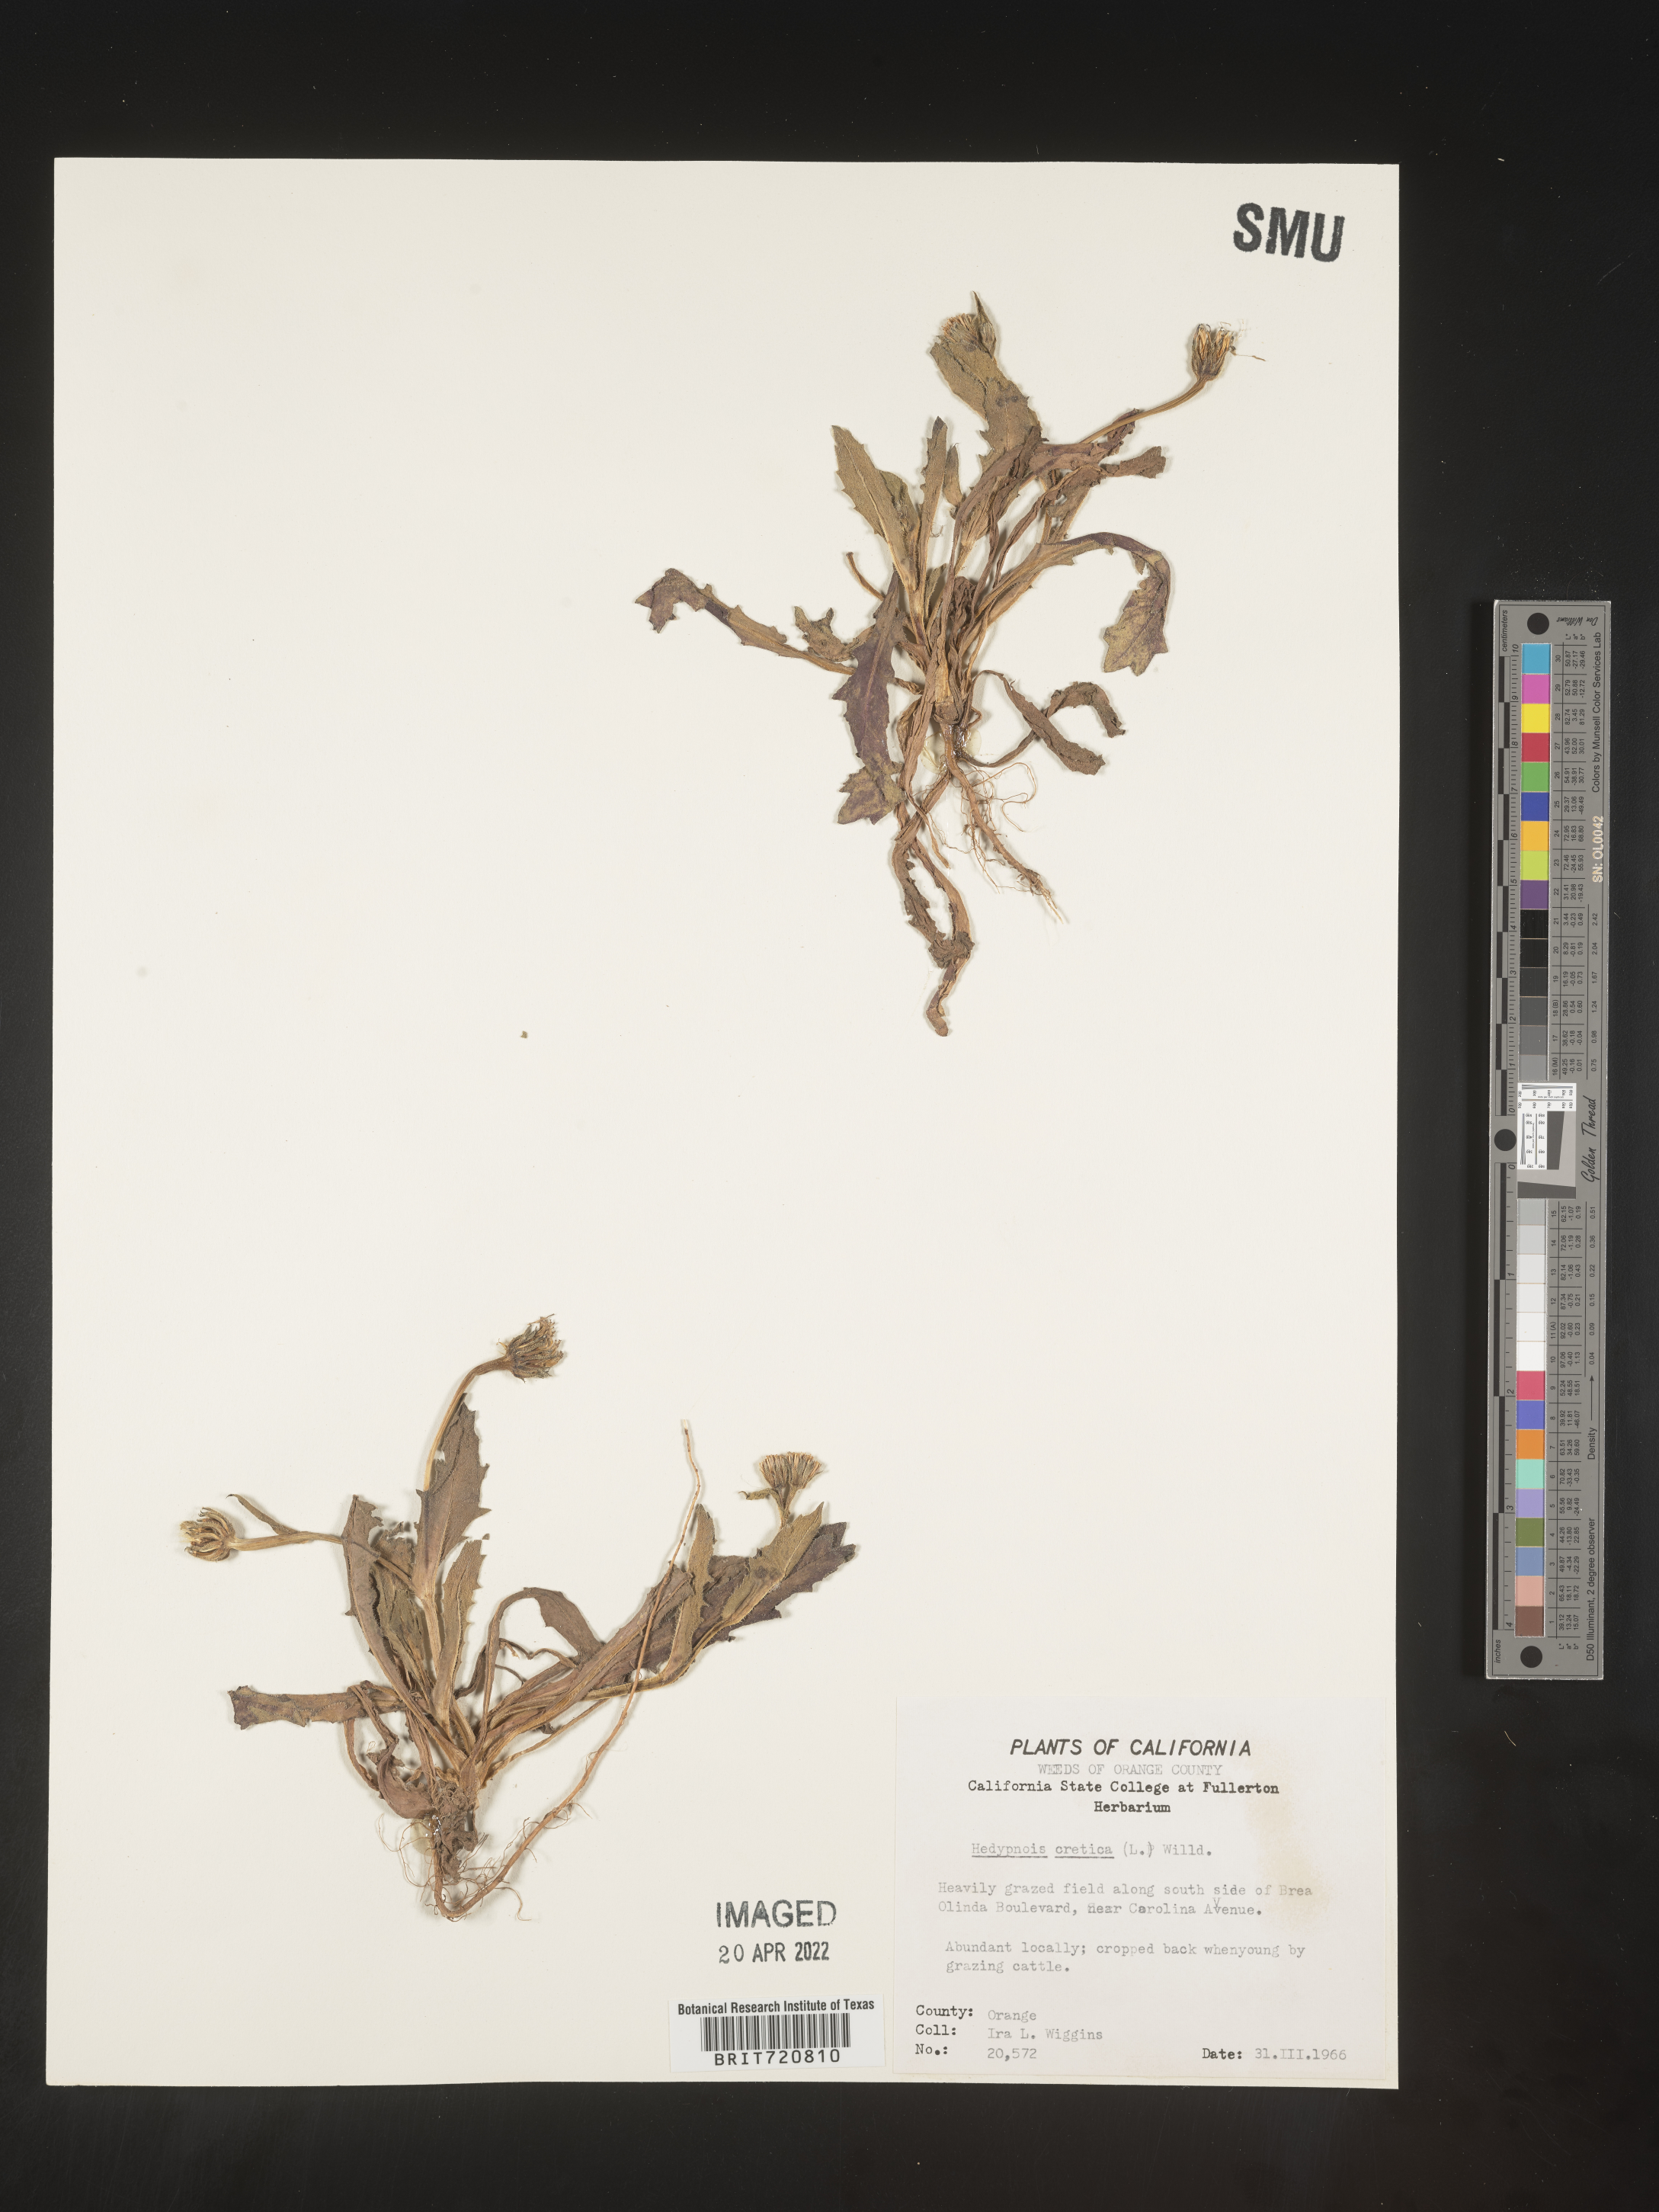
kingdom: Plantae
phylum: Tracheophyta
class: Magnoliopsida
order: Asterales
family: Asteraceae
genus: Hedypnois
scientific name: Hedypnois
